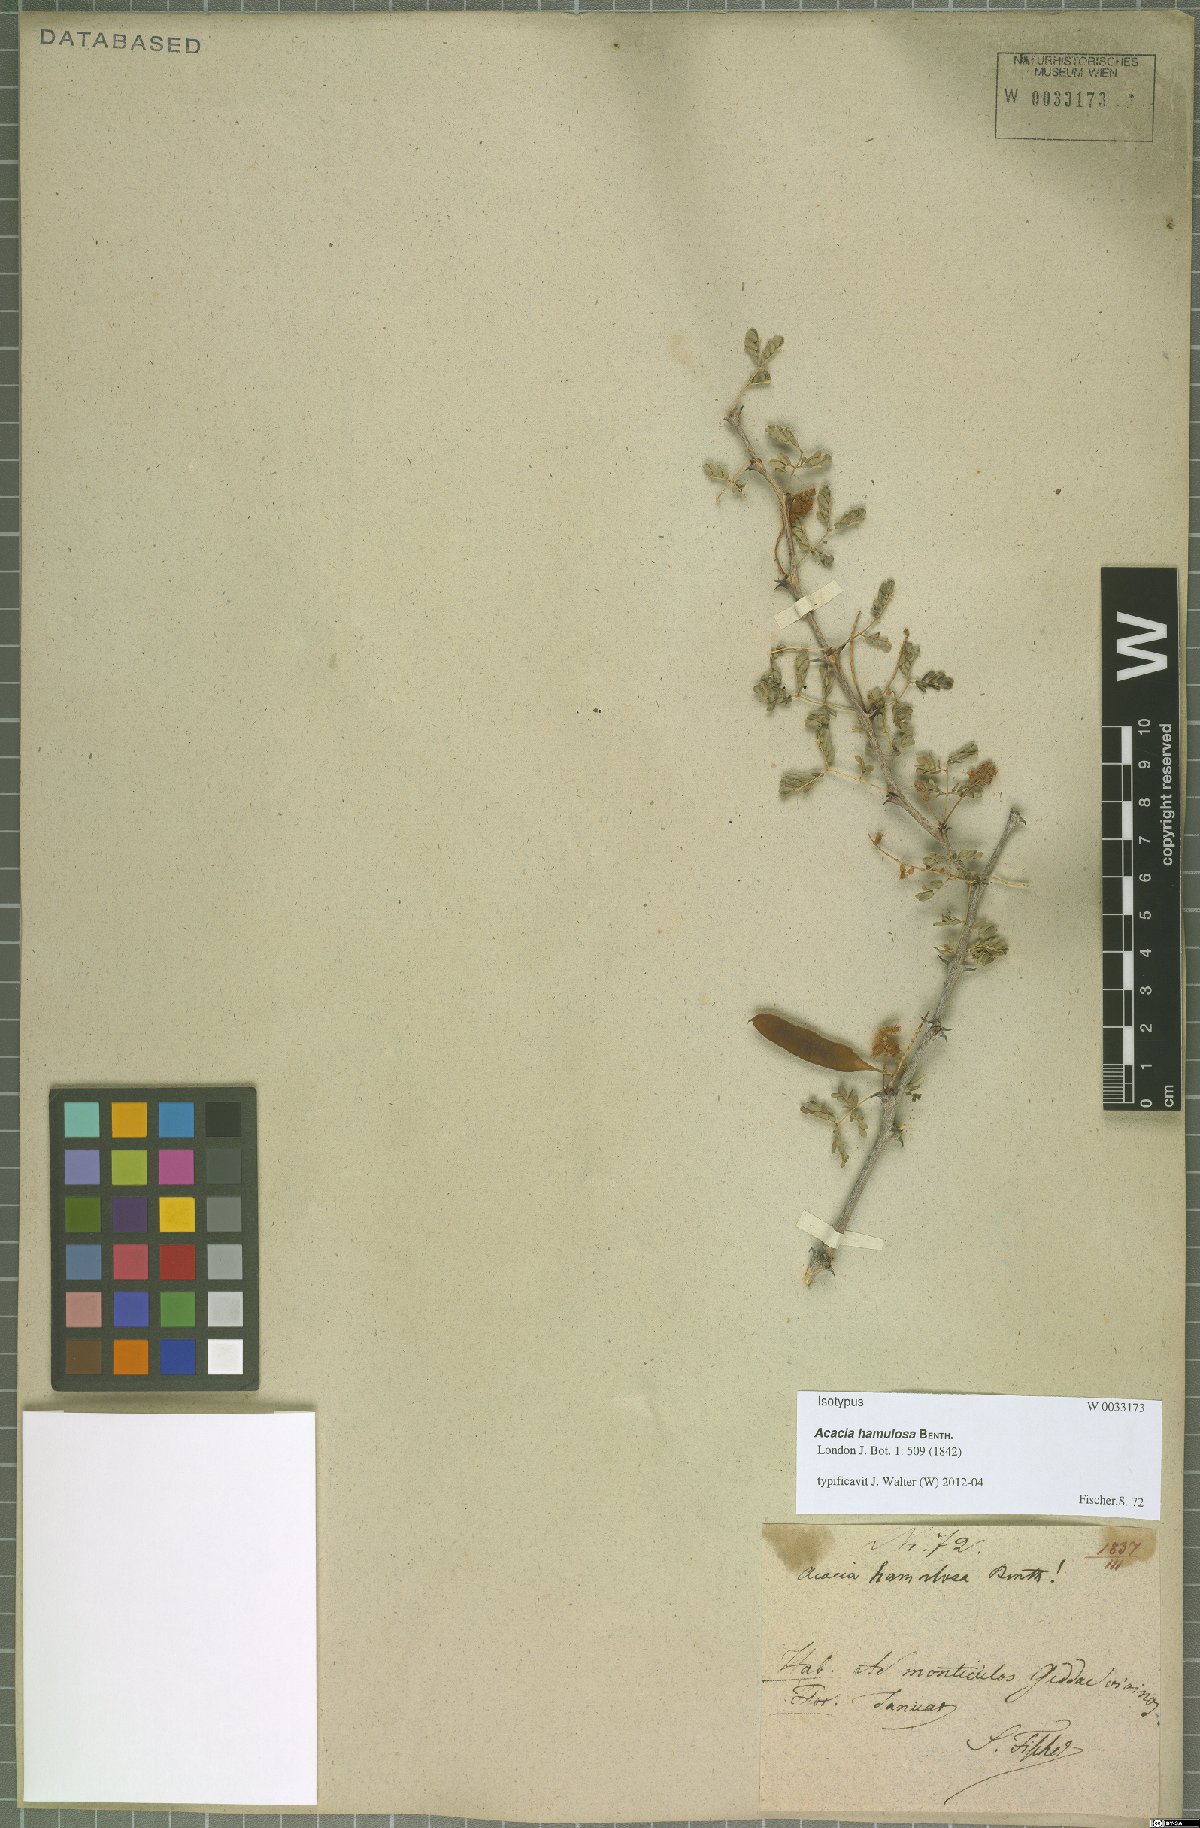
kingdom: Plantae
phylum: Tracheophyta
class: Magnoliopsida
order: Fabales
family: Fabaceae
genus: Senegalia
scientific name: Senegalia hamulosa
